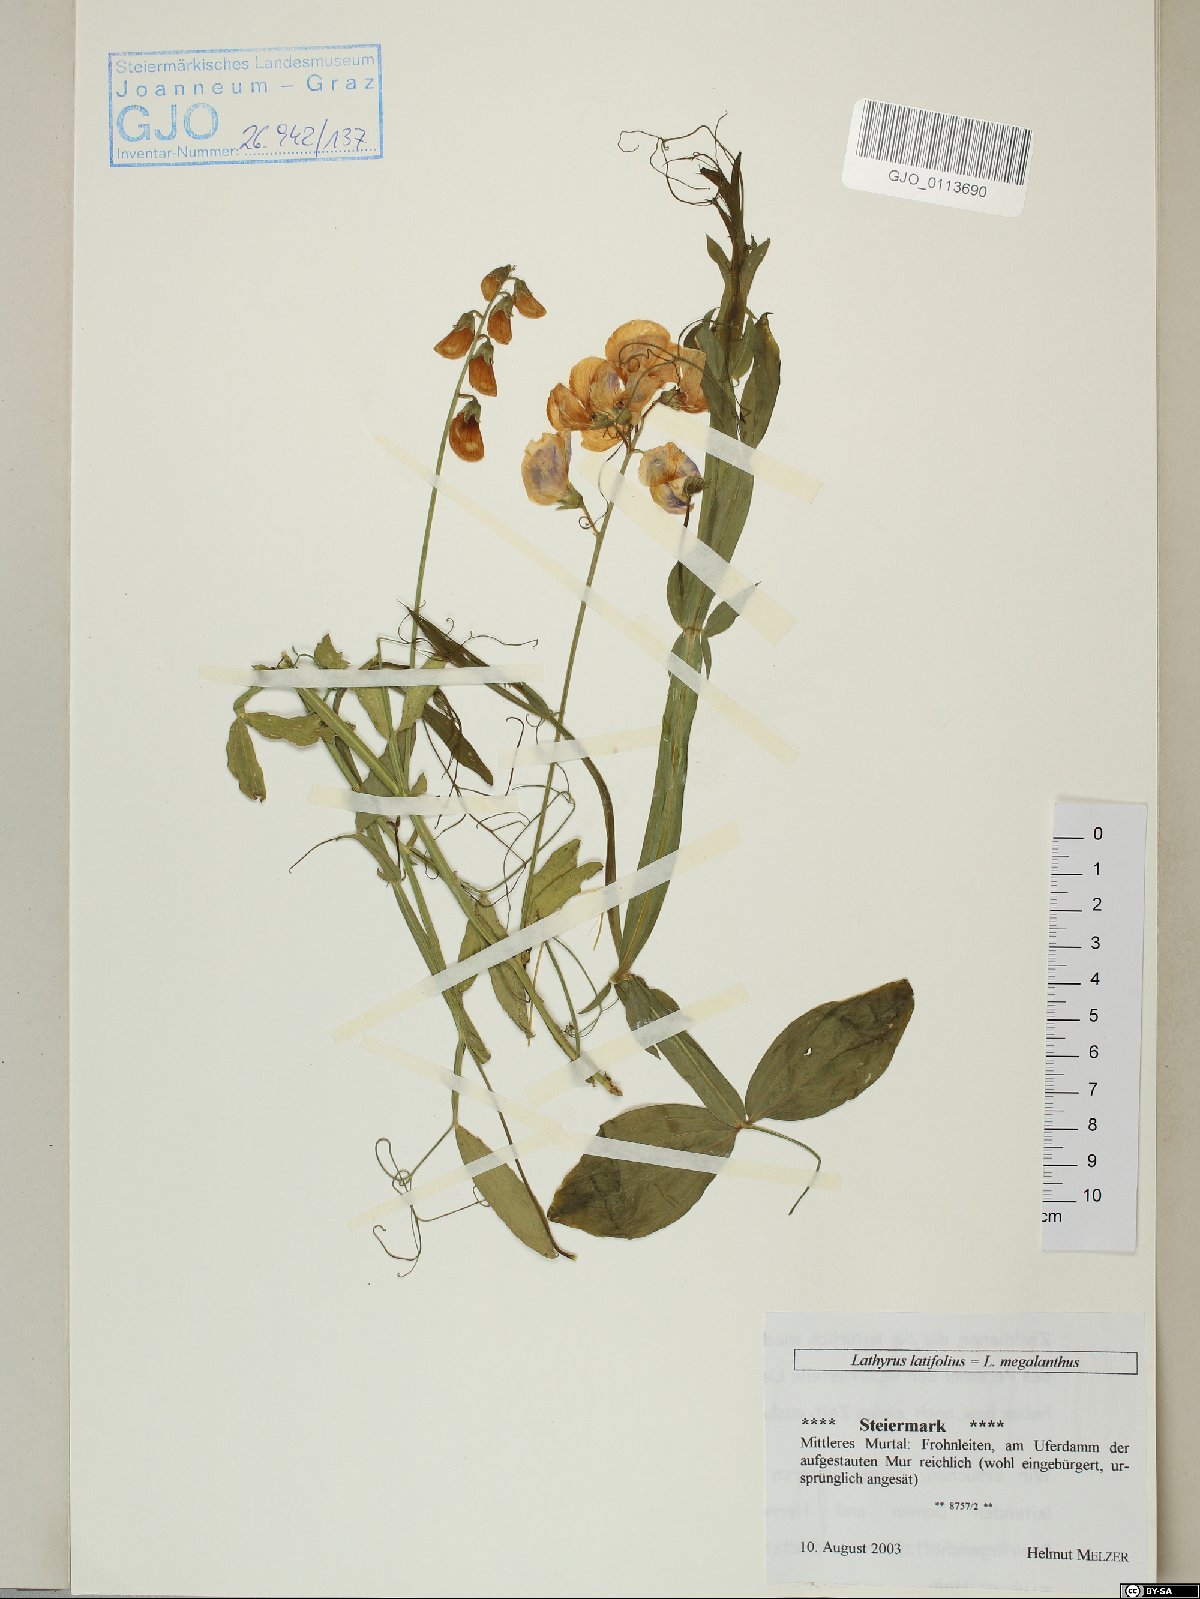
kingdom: Plantae
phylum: Tracheophyta
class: Magnoliopsida
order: Fabales
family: Fabaceae
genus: Lathyrus
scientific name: Lathyrus latifolius
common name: Perennial pea
